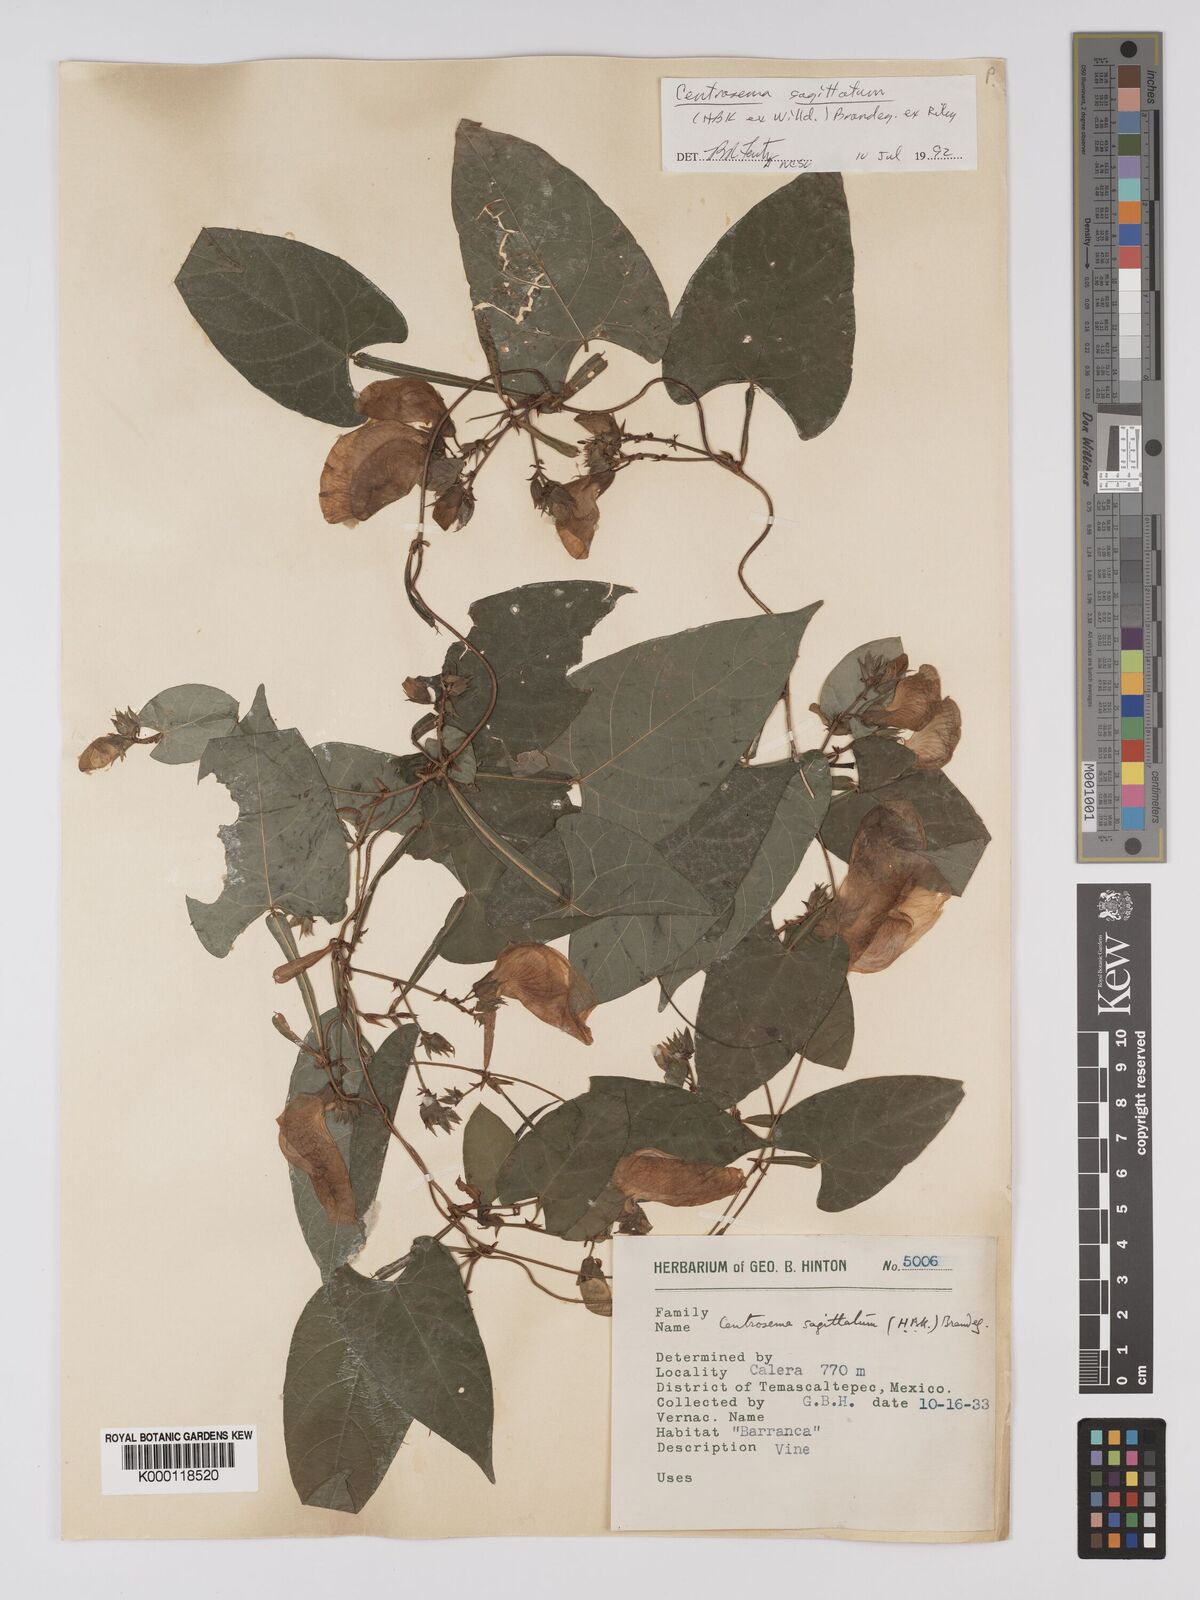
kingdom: Plantae
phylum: Tracheophyta
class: Magnoliopsida
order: Fabales
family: Fabaceae
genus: Centrosema
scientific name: Centrosema sagittatum
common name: Arrowleaf butterfly pea
